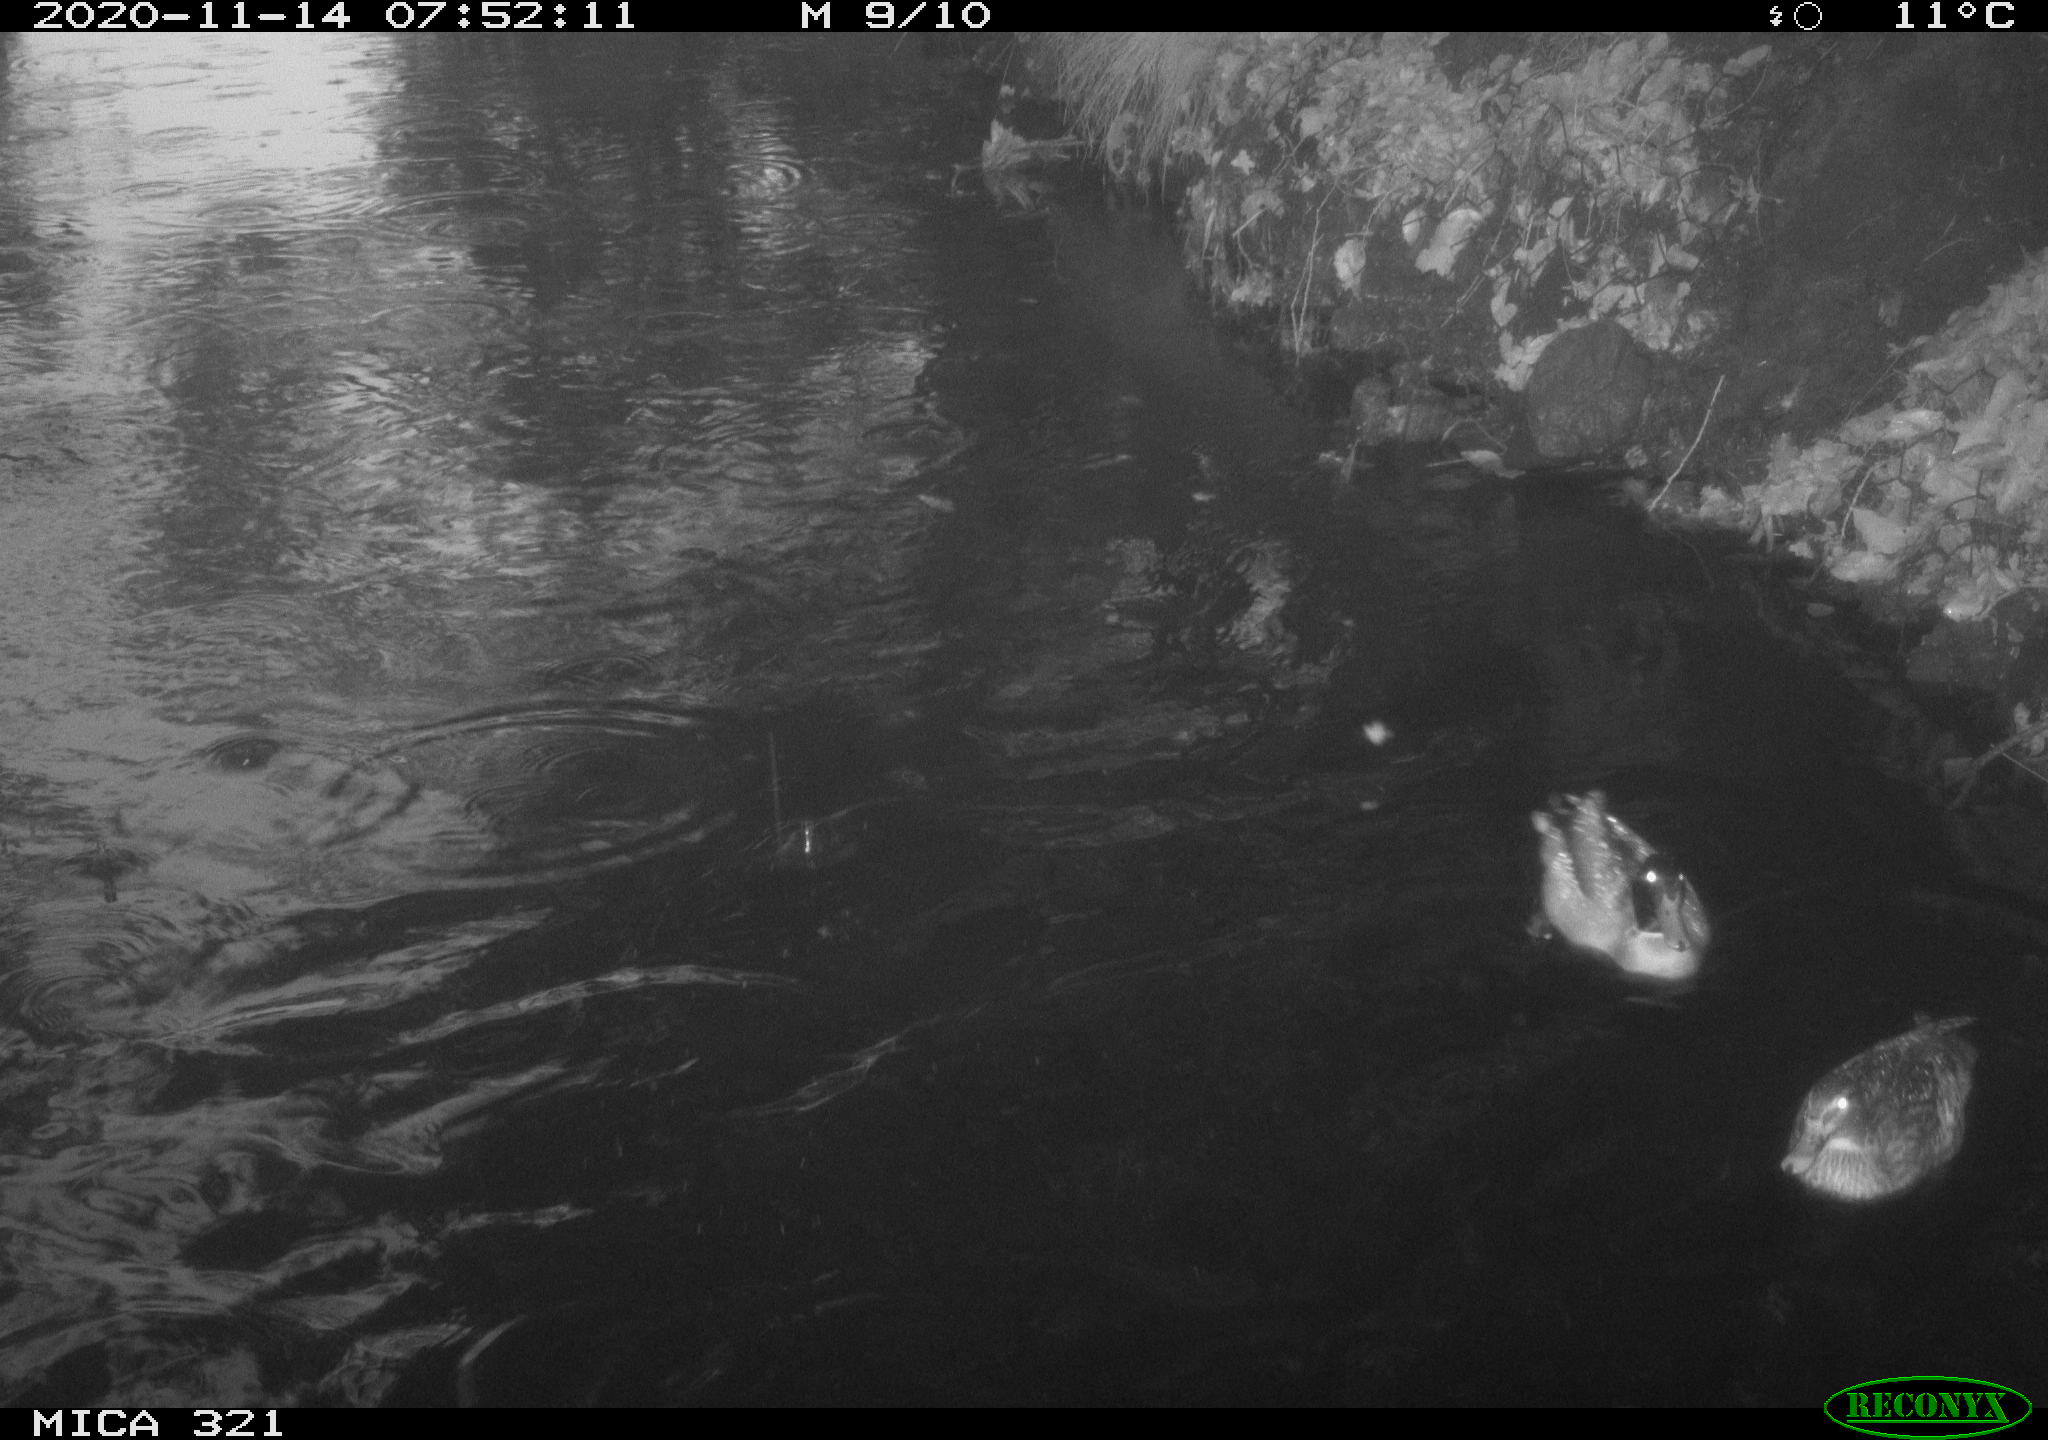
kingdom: Animalia
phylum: Chordata
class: Aves
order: Anseriformes
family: Anatidae
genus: Anas
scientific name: Anas platyrhynchos
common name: Mallard
